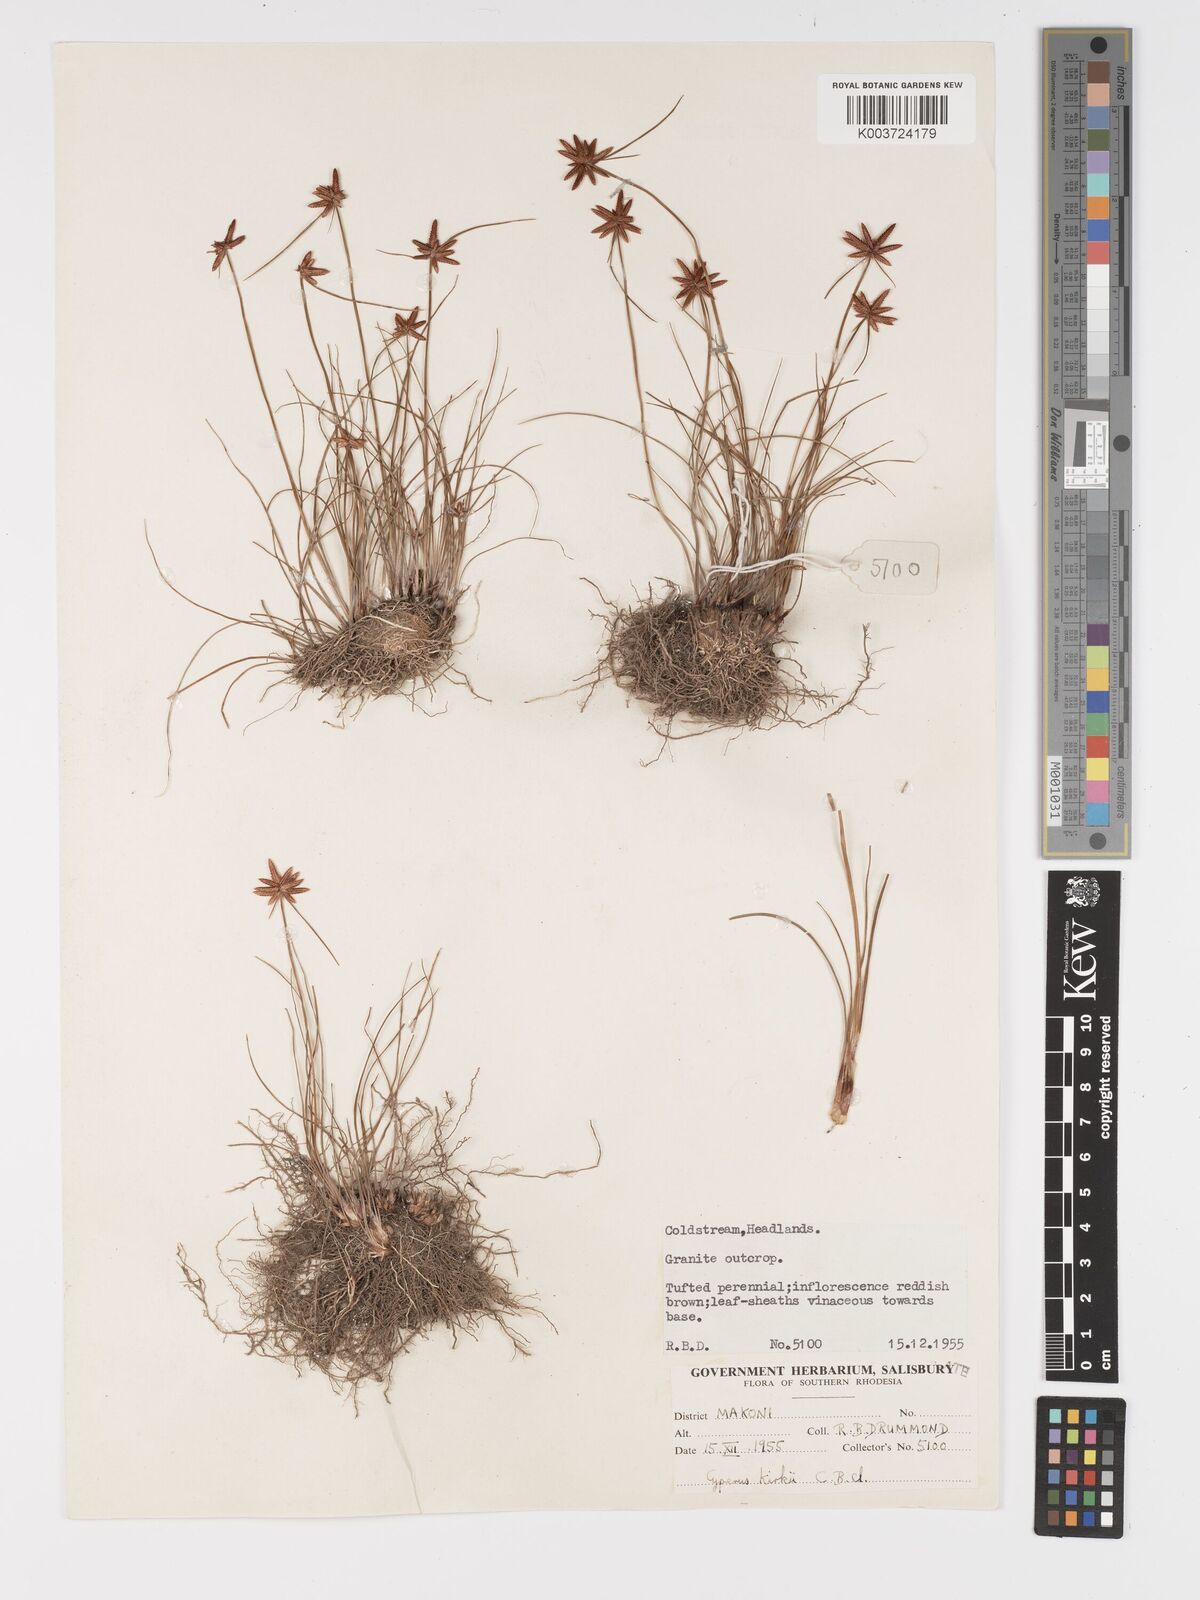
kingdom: Plantae
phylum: Tracheophyta
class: Liliopsida
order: Poales
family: Cyperaceae
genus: Cyperus
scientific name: Cyperus rupestris
